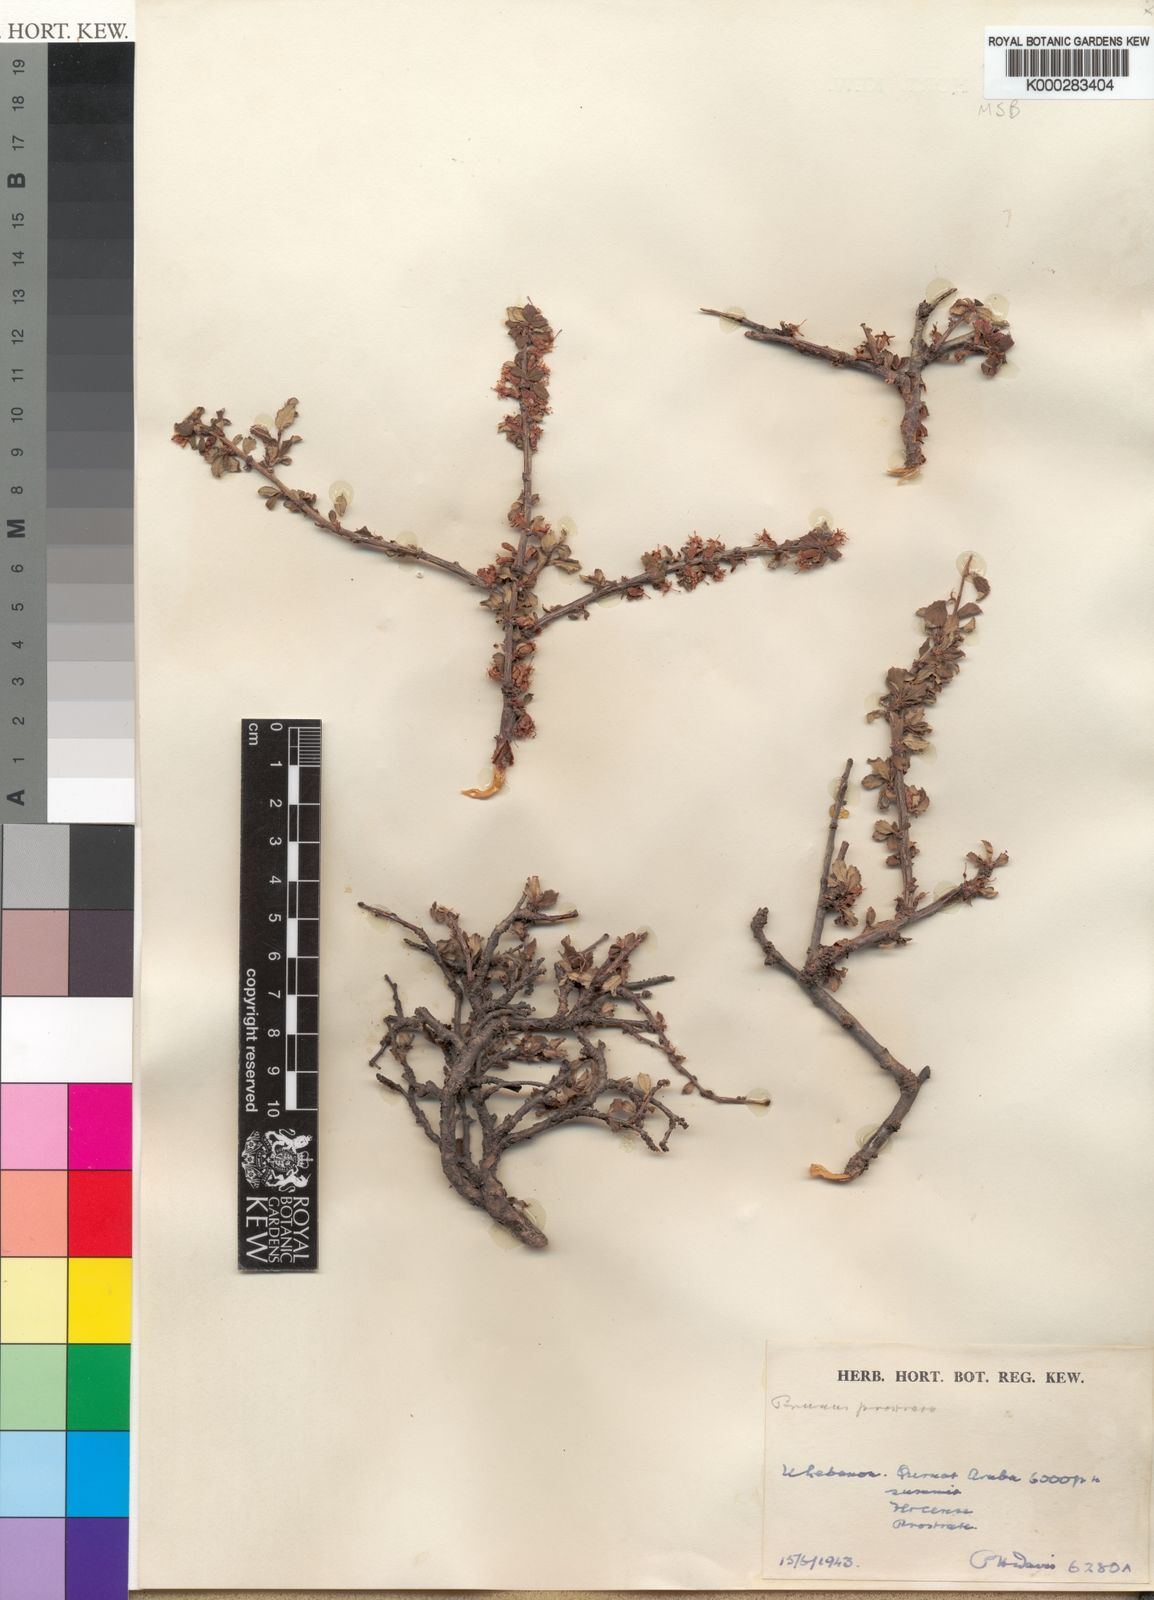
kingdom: Plantae
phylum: Tracheophyta
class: Magnoliopsida
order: Rosales
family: Rosaceae
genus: Prunus
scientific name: Prunus prostrata
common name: Mountain cherry
